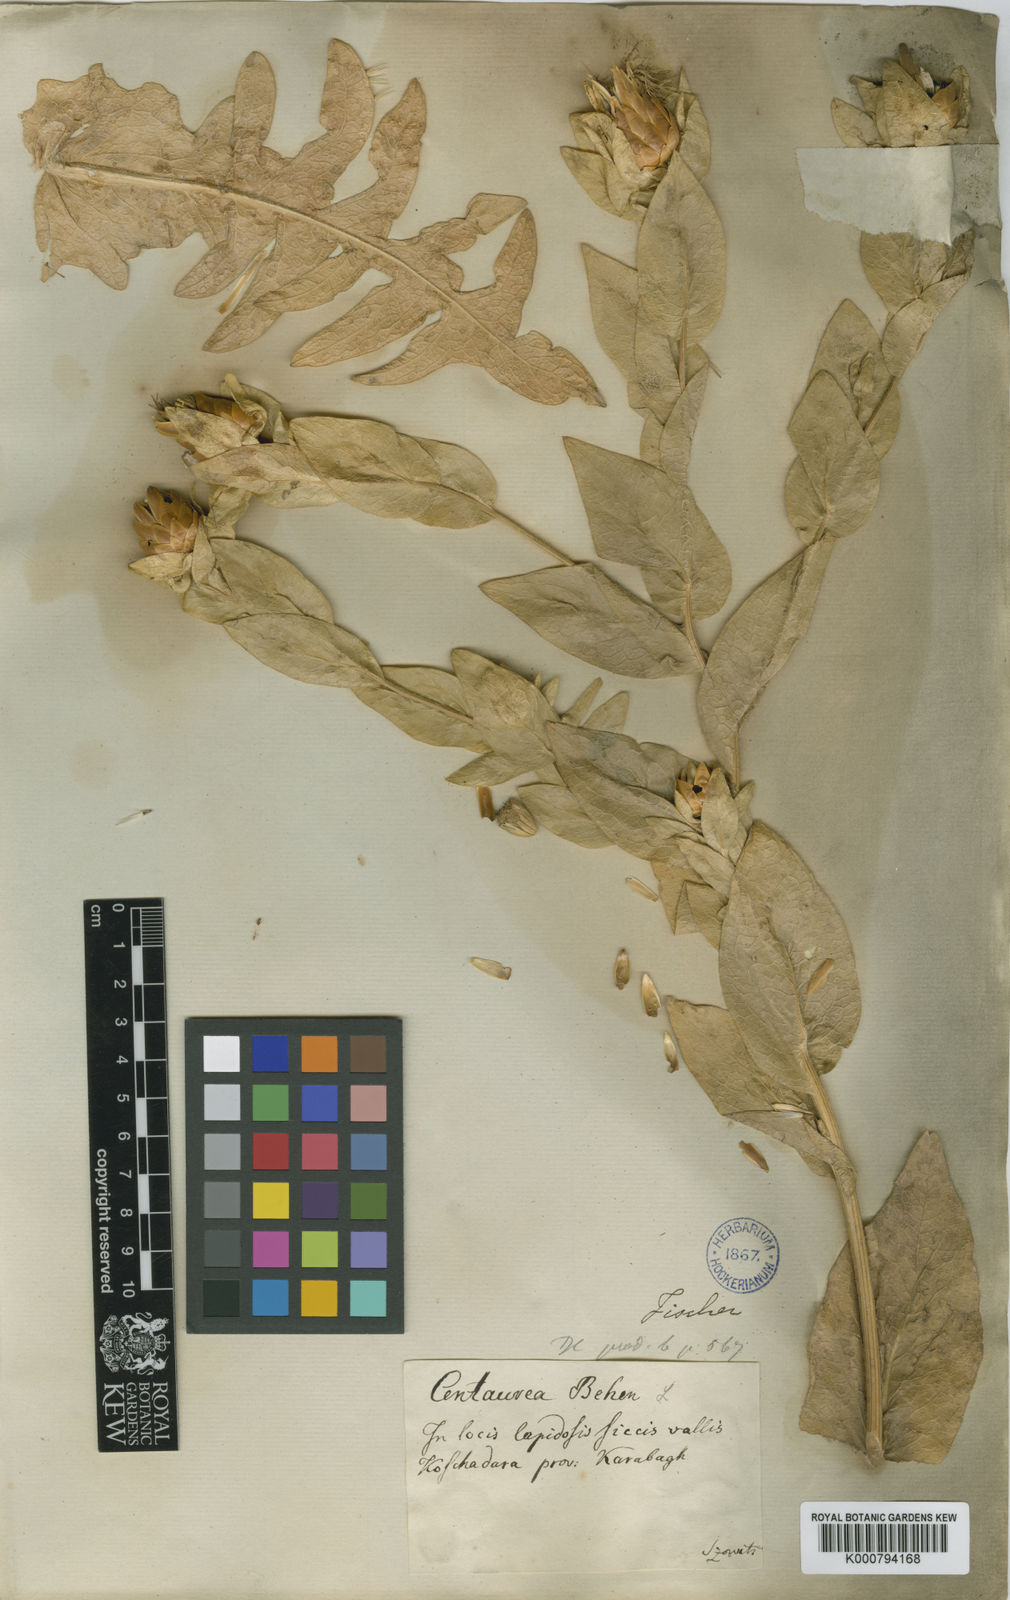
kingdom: Plantae
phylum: Tracheophyta
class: Magnoliopsida
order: Asterales
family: Asteraceae
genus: Centaurea
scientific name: Centaurea szovitsiana
